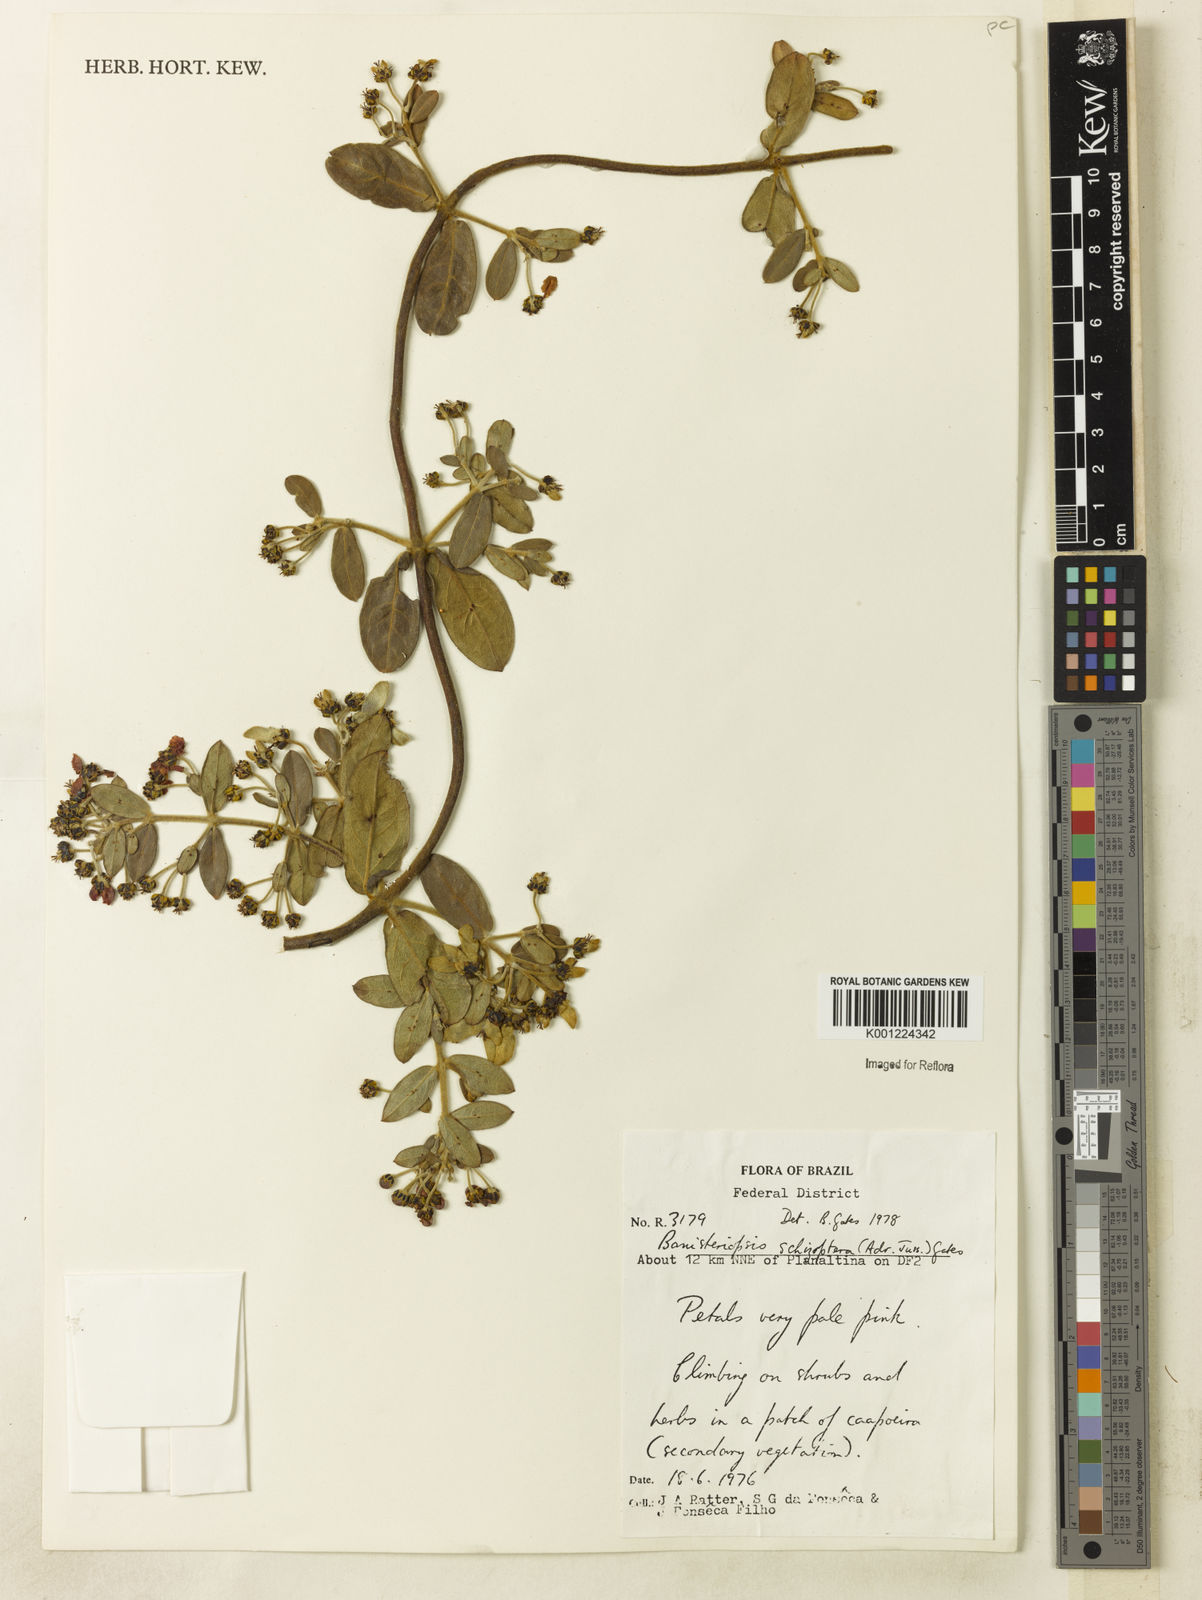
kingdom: Plantae
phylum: Tracheophyta
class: Magnoliopsida
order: Malpighiales
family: Malpighiaceae
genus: Banisteriopsis
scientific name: Banisteriopsis schizoptera
